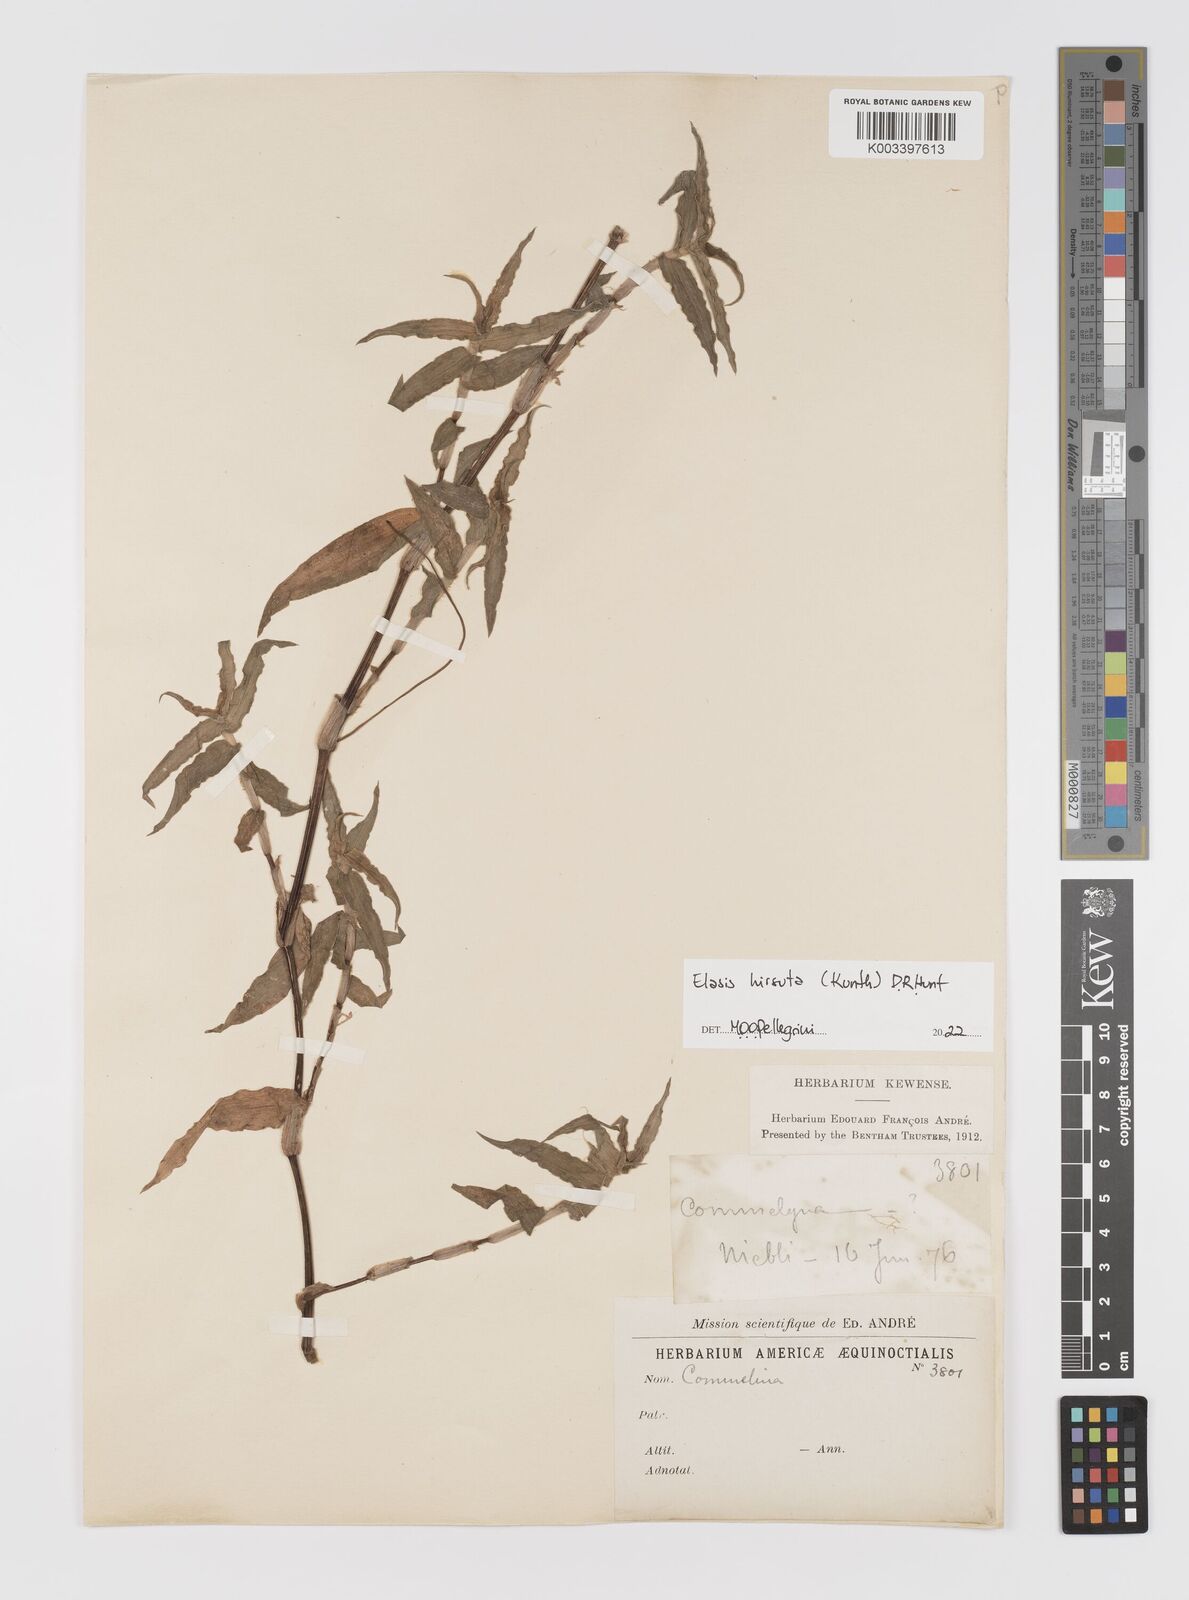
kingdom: Plantae
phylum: Tracheophyta
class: Liliopsida
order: Commelinales
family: Commelinaceae
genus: Elasis
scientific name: Elasis hirsuta
